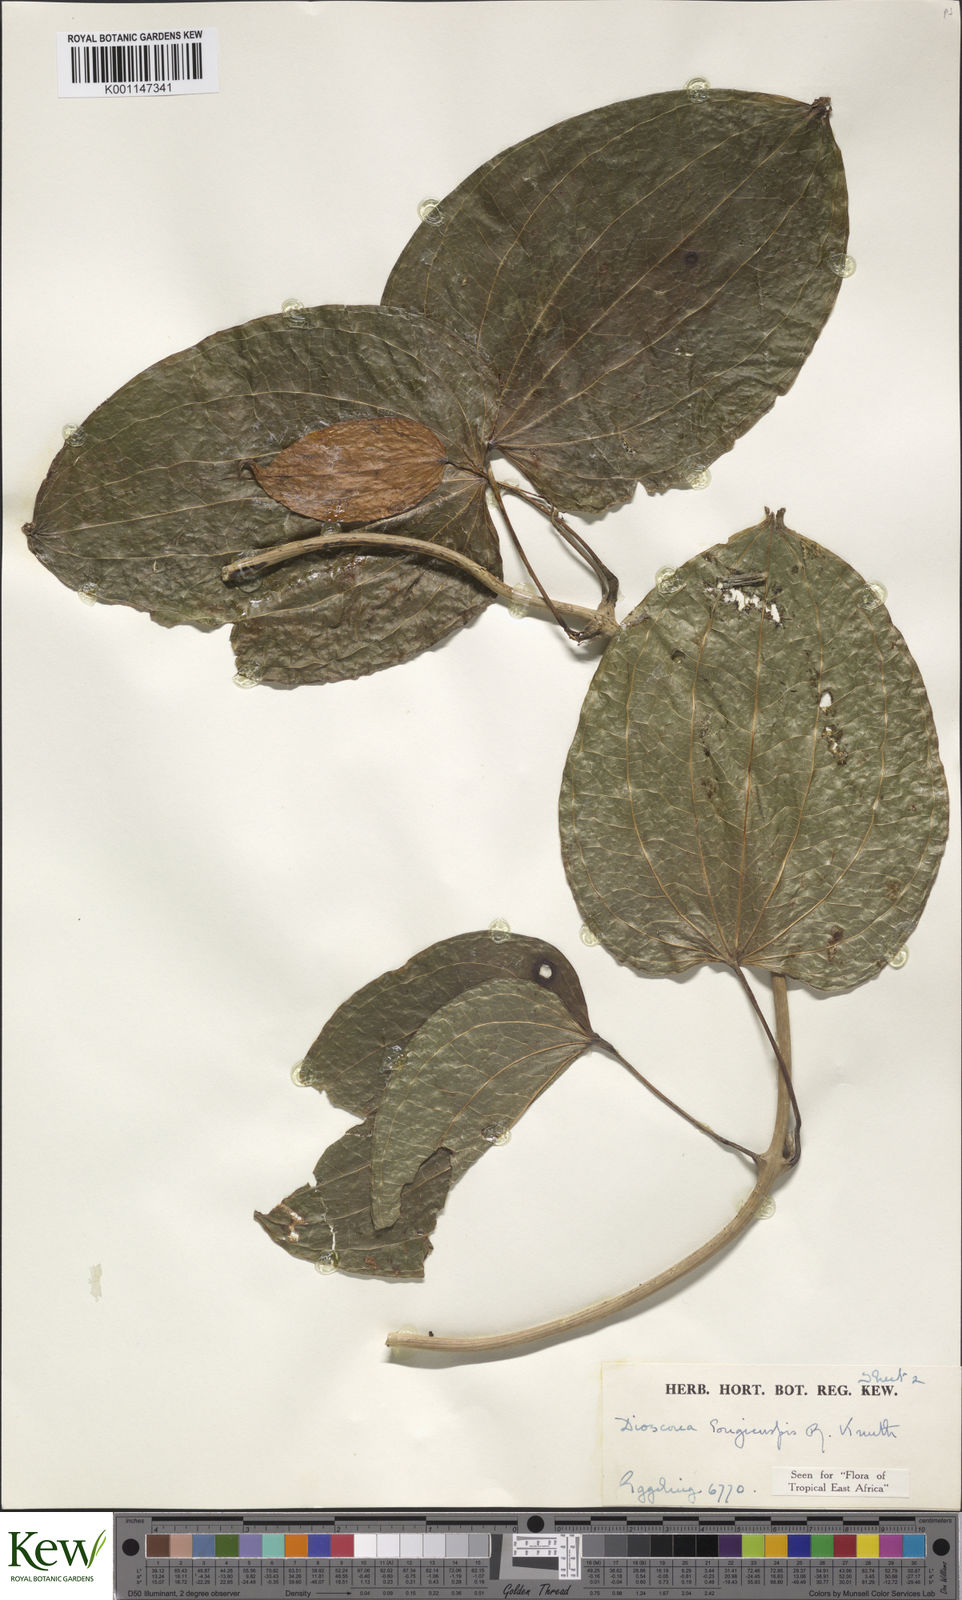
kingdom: Plantae
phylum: Tracheophyta
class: Liliopsida
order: Dioscoreales
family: Dioscoreaceae
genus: Dioscorea
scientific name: Dioscorea longicuspis
